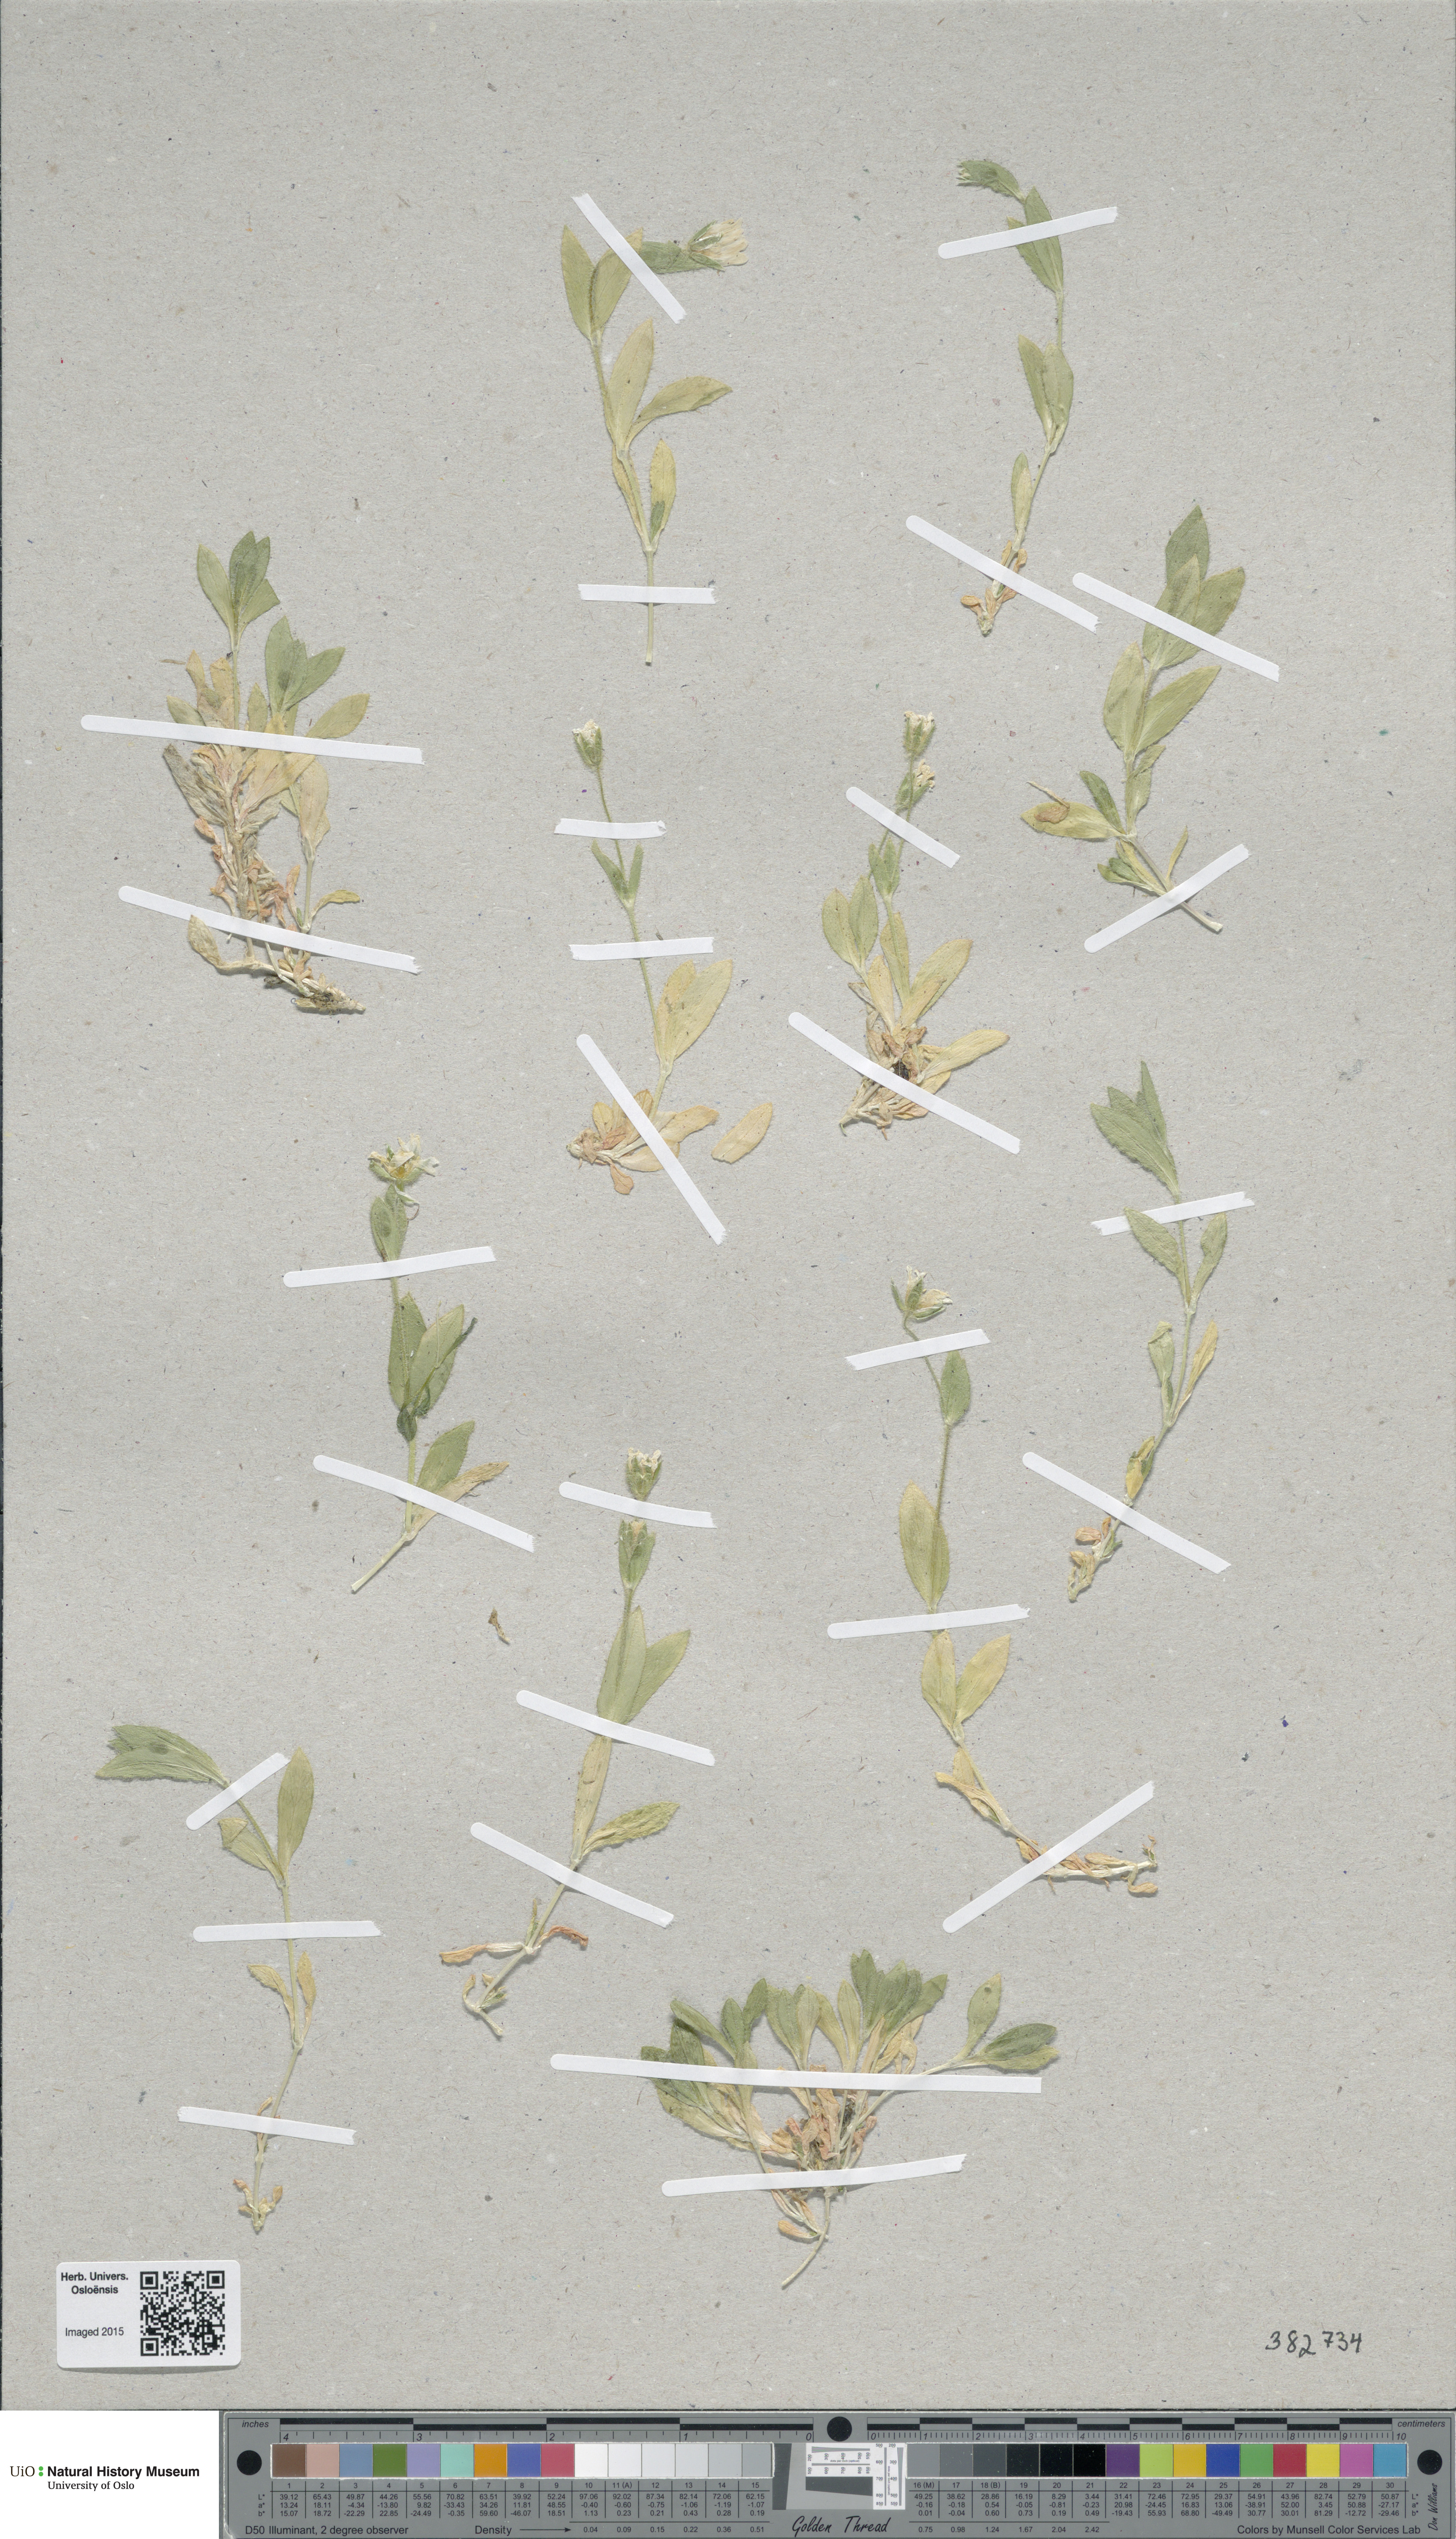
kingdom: Plantae
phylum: Tracheophyta
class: Magnoliopsida
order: Caryophyllales
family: Caryophyllaceae
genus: Cerastium
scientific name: Cerastium arcticum
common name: Arctic mouse-ear
